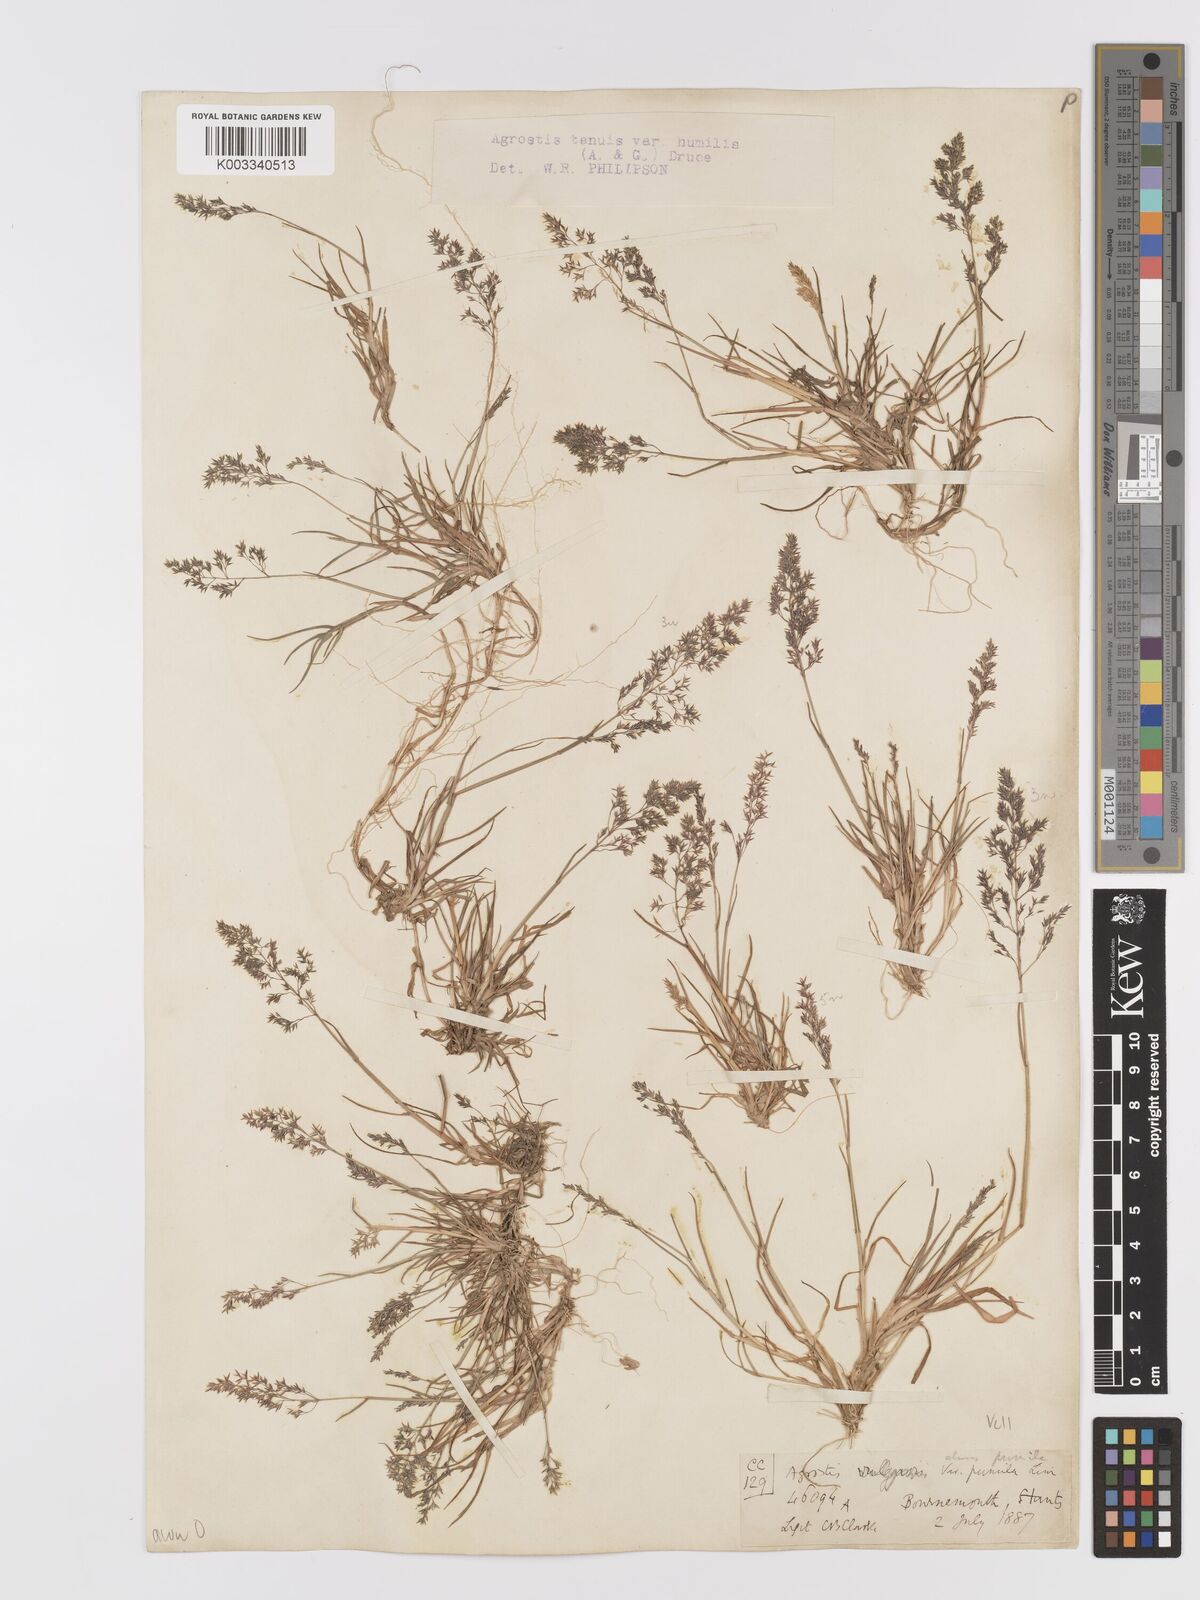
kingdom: Plantae
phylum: Tracheophyta
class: Liliopsida
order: Poales
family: Poaceae
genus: Agrostis
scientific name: Agrostis capillaris
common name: Colonial bentgrass
